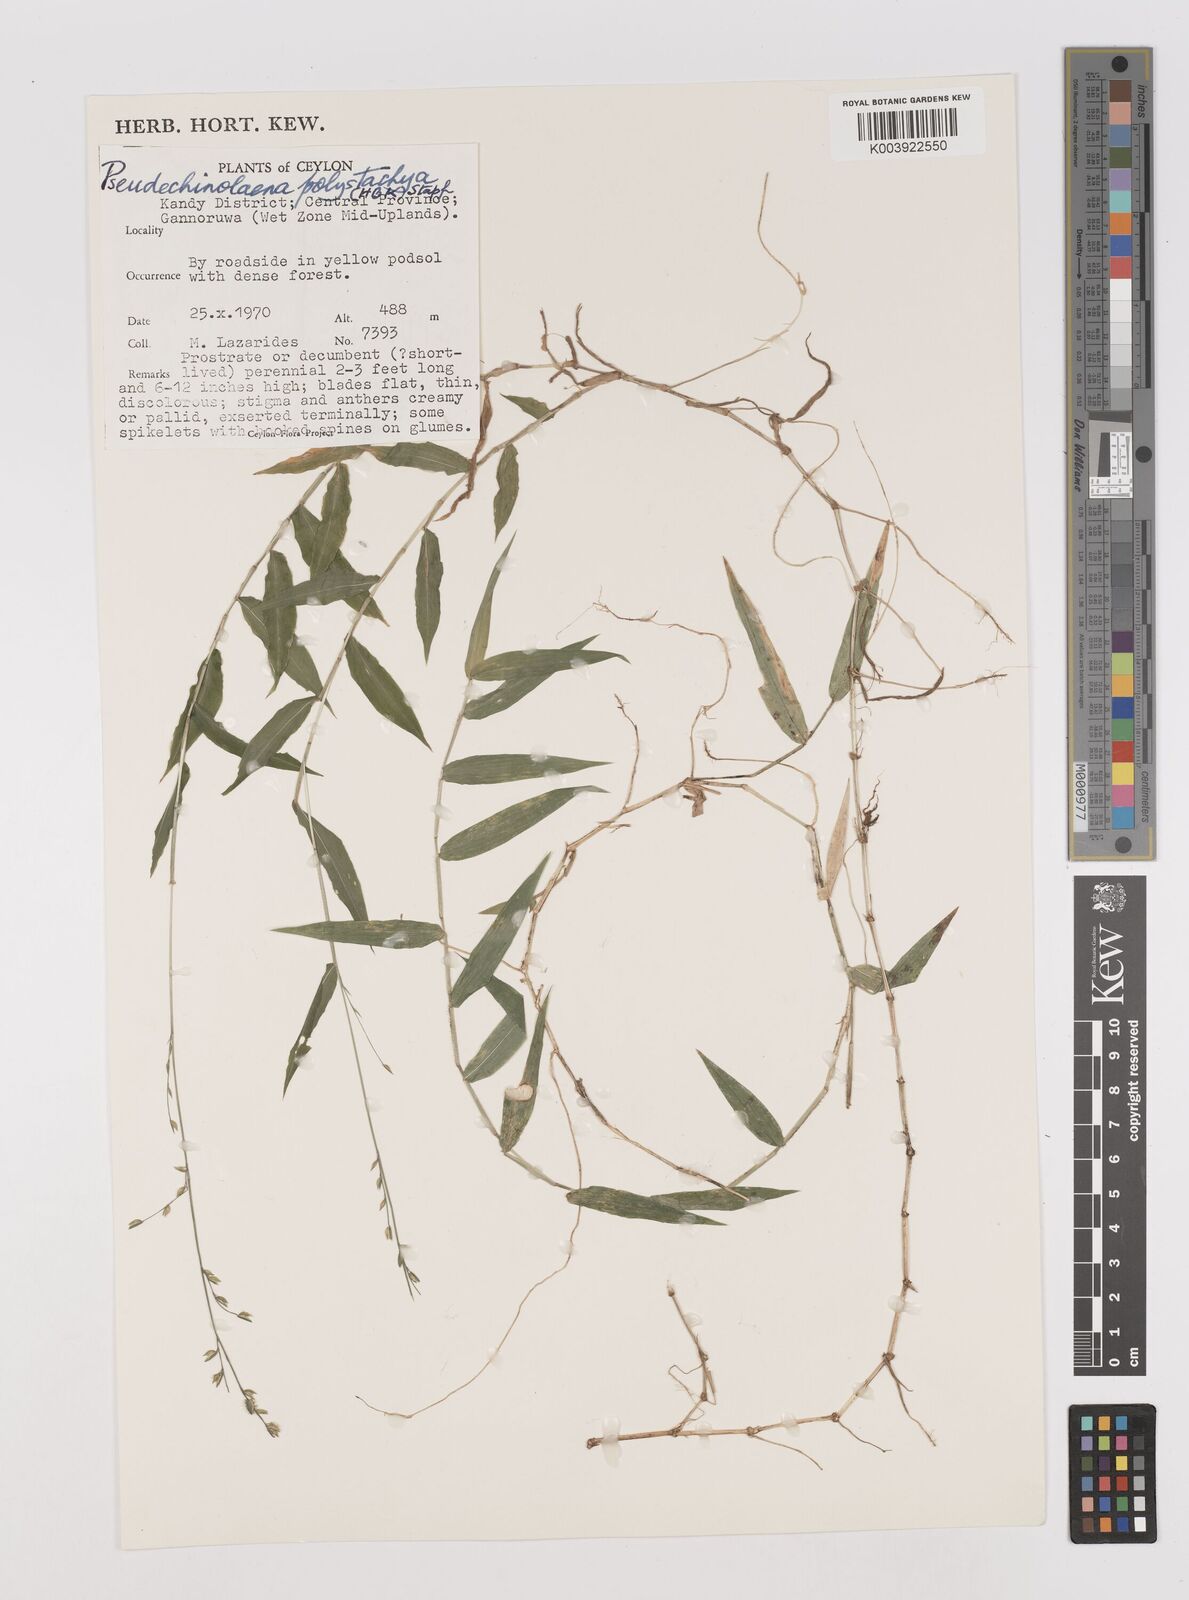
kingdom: Plantae
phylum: Tracheophyta
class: Liliopsida
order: Poales
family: Poaceae
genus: Pseudechinolaena
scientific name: Pseudechinolaena polystachya
